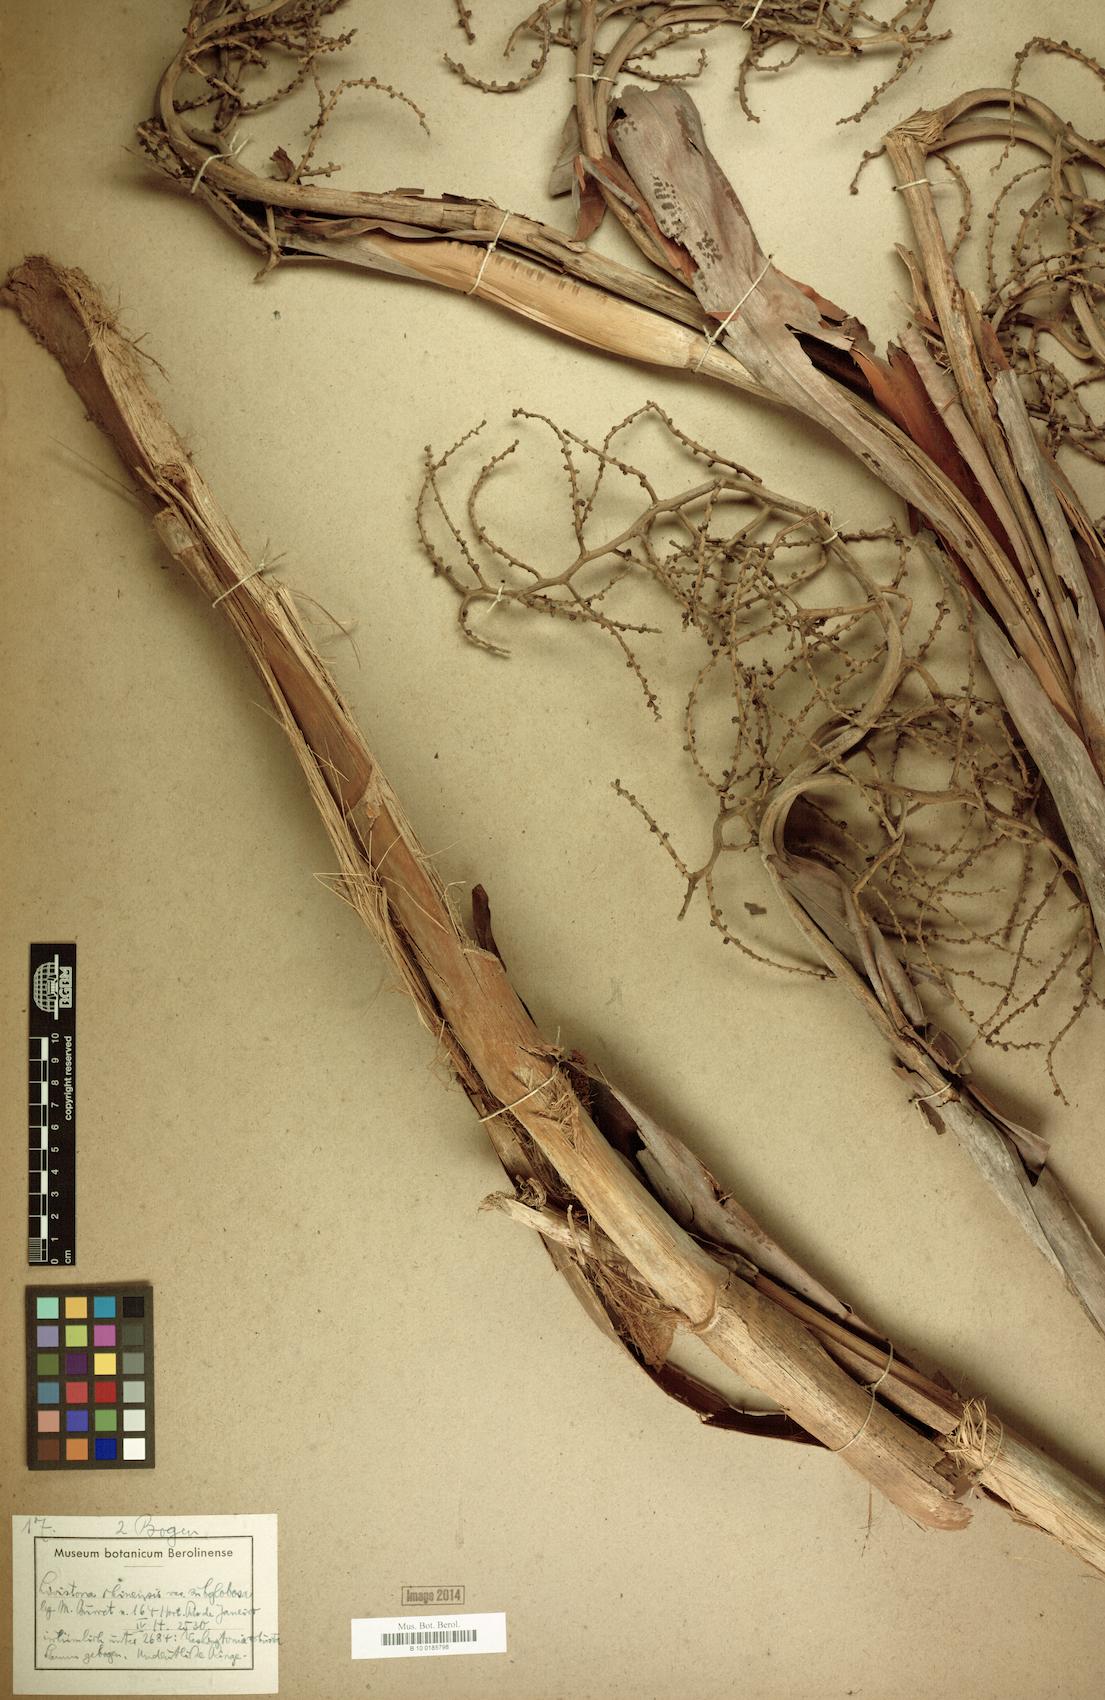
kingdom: Plantae
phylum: Tracheophyta
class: Liliopsida
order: Arecales
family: Arecaceae
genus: Livistona
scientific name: Livistona chinensis
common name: Fountain palm
